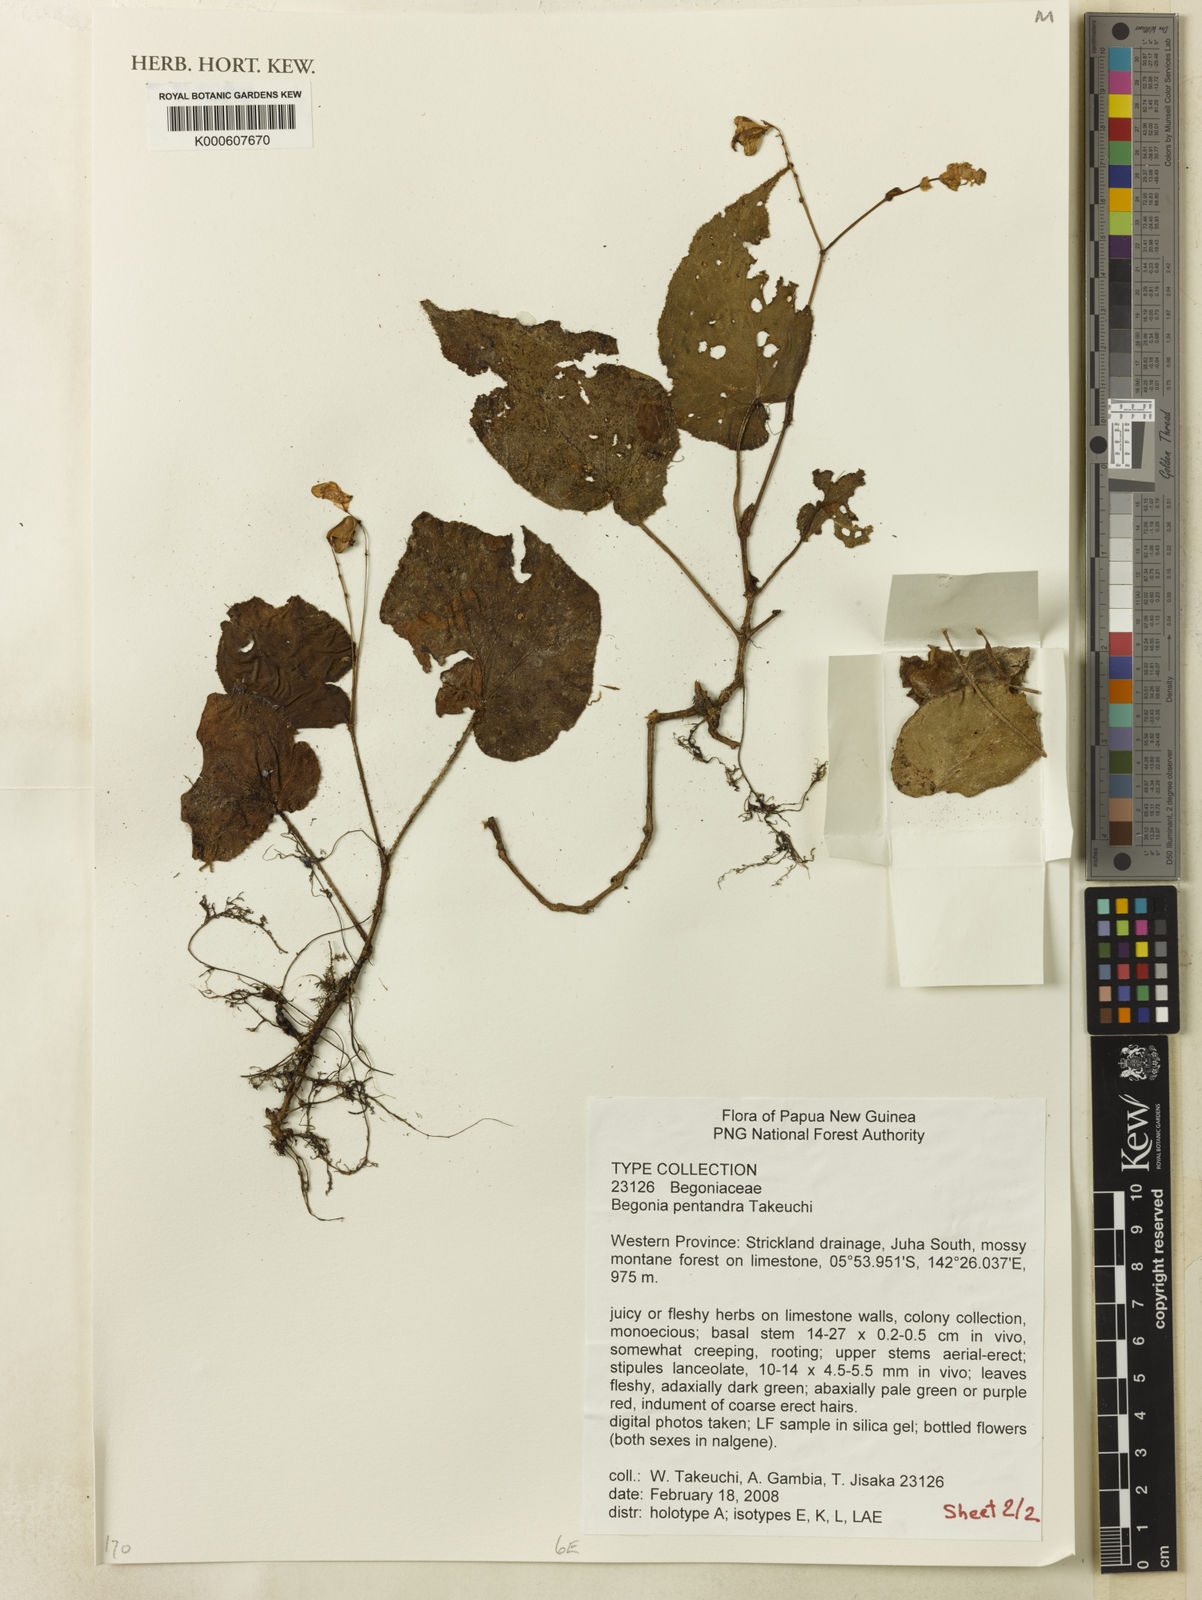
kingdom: Plantae
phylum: Tracheophyta
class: Magnoliopsida
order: Cucurbitales
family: Begoniaceae
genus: Begonia
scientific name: Begonia pentandra
